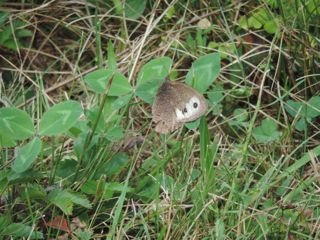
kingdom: Animalia
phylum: Arthropoda
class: Insecta
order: Lepidoptera
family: Nymphalidae
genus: Cercyonis
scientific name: Cercyonis pegala
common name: Common Wood-Nymph
